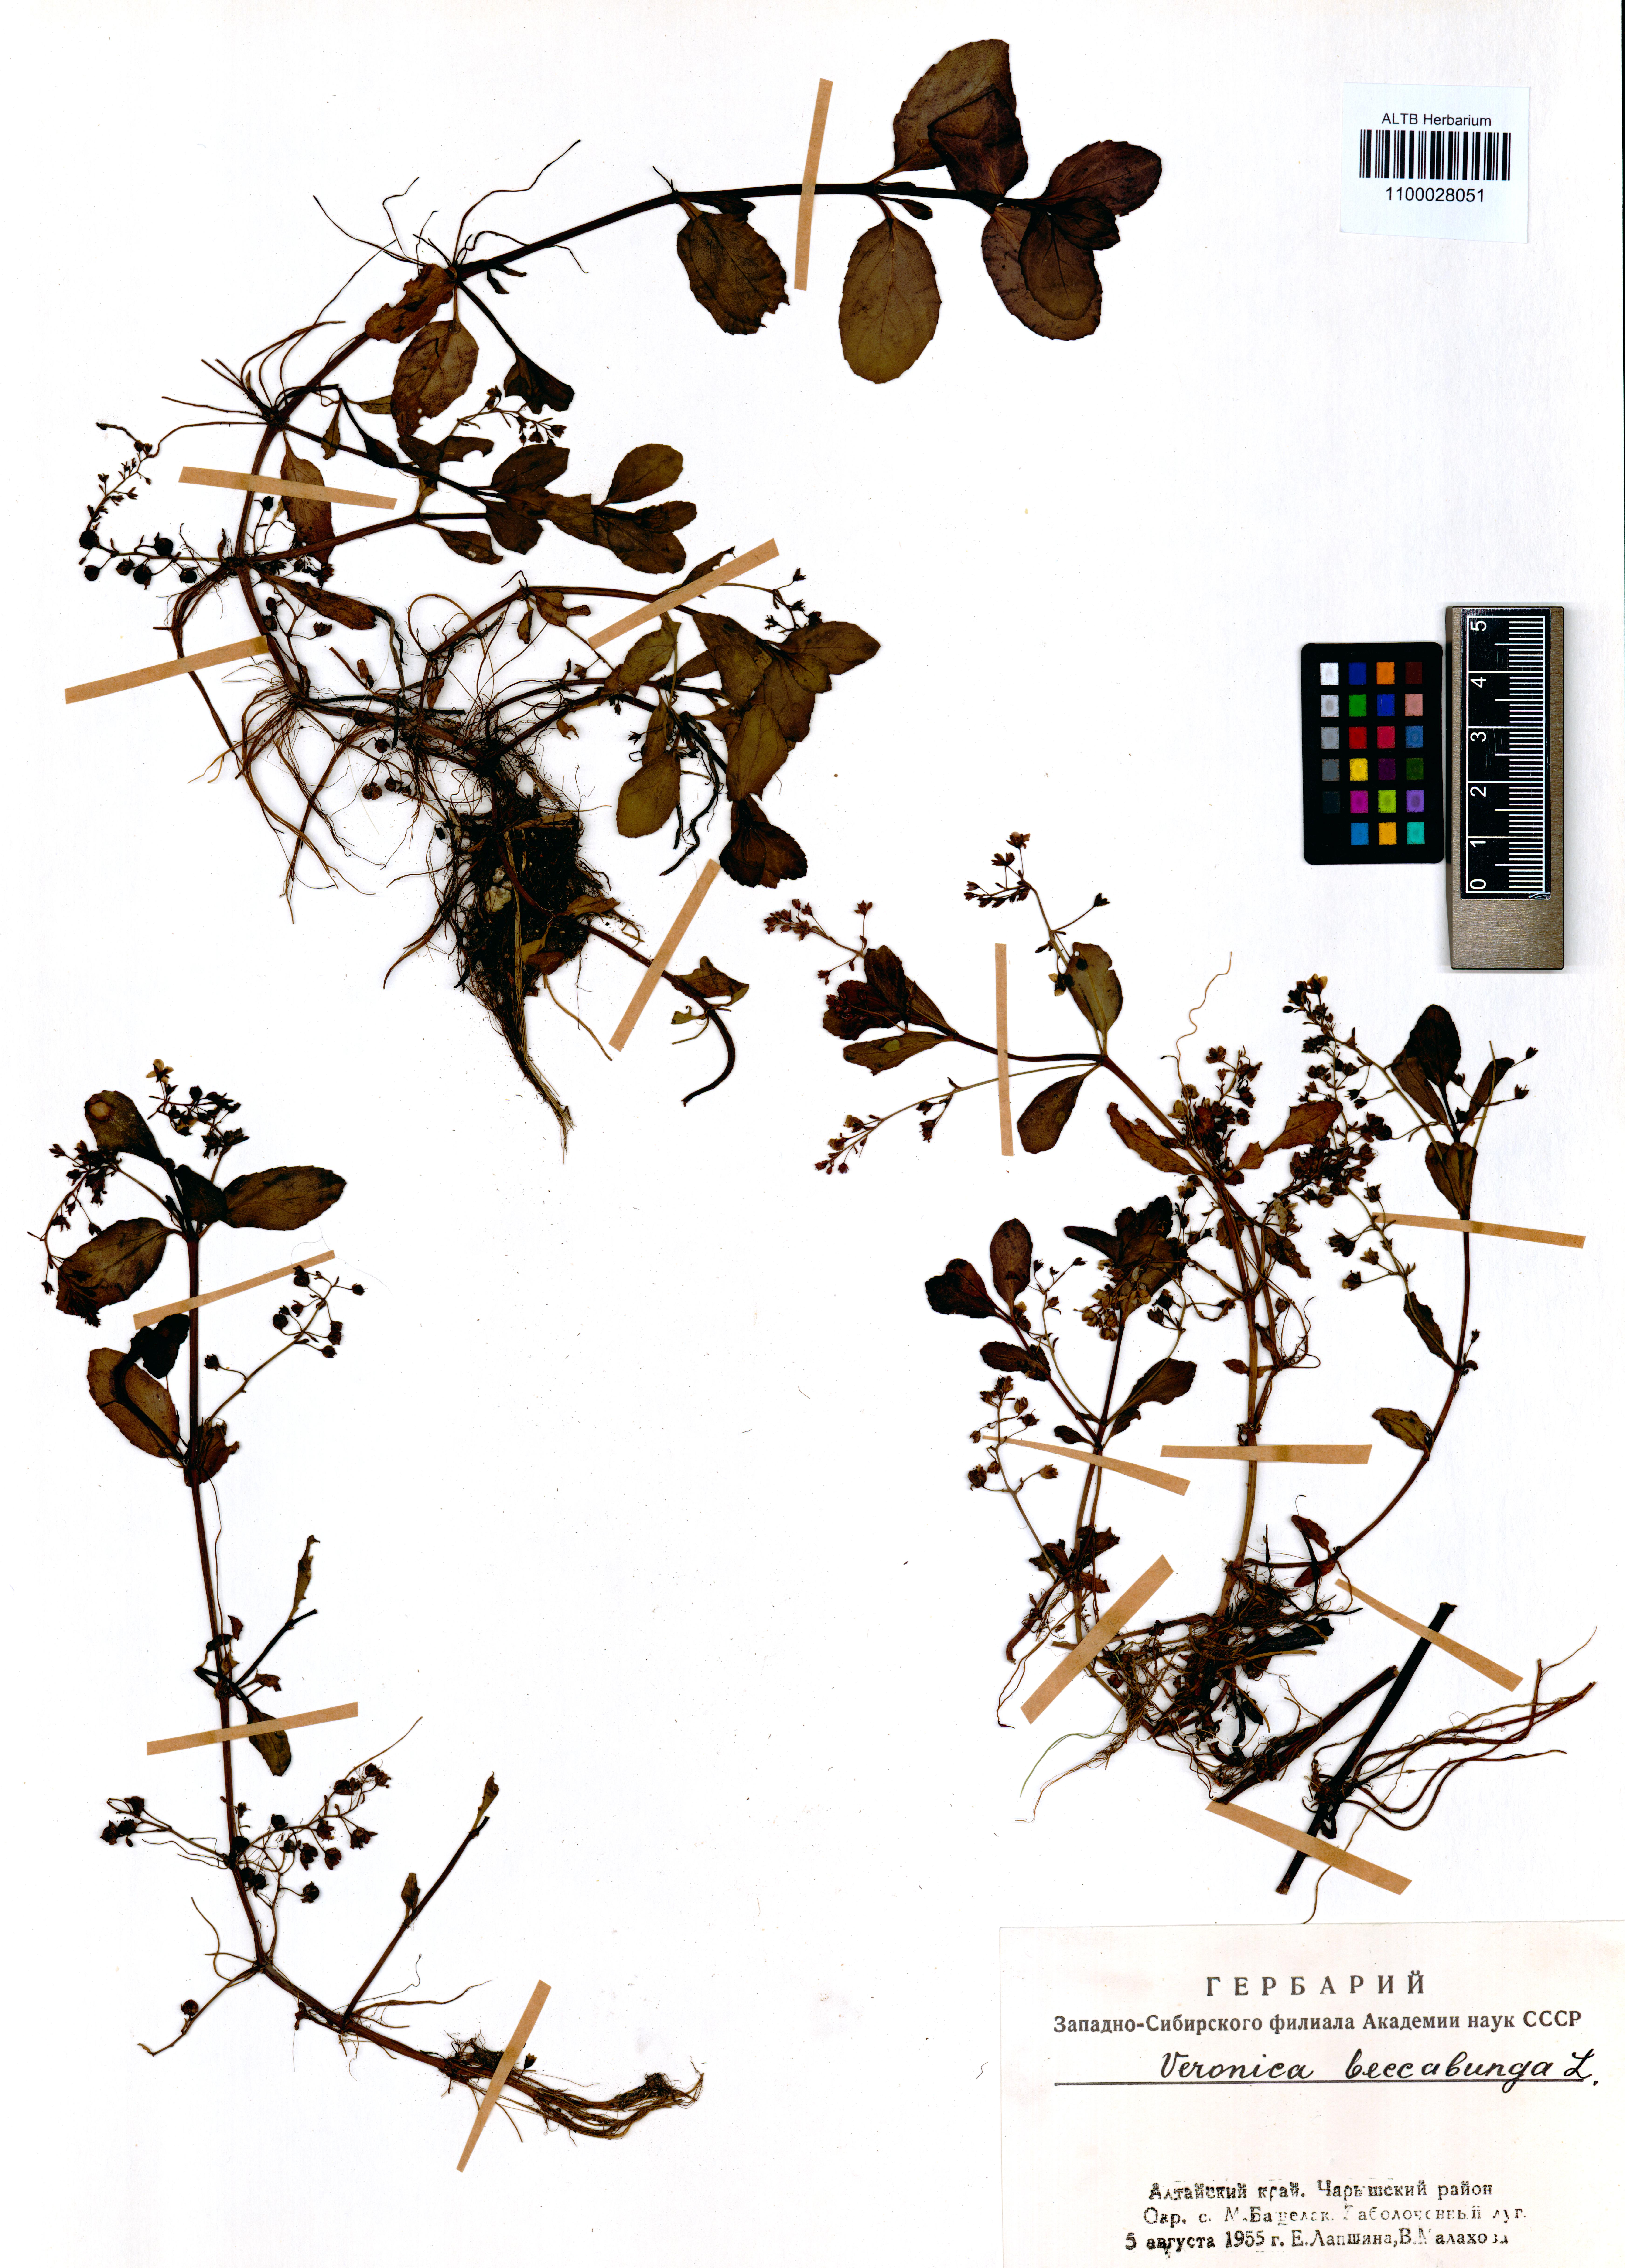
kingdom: Plantae
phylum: Tracheophyta
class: Magnoliopsida
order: Lamiales
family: Plantaginaceae
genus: Veronica
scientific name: Veronica beccabunga
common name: Brooklime
